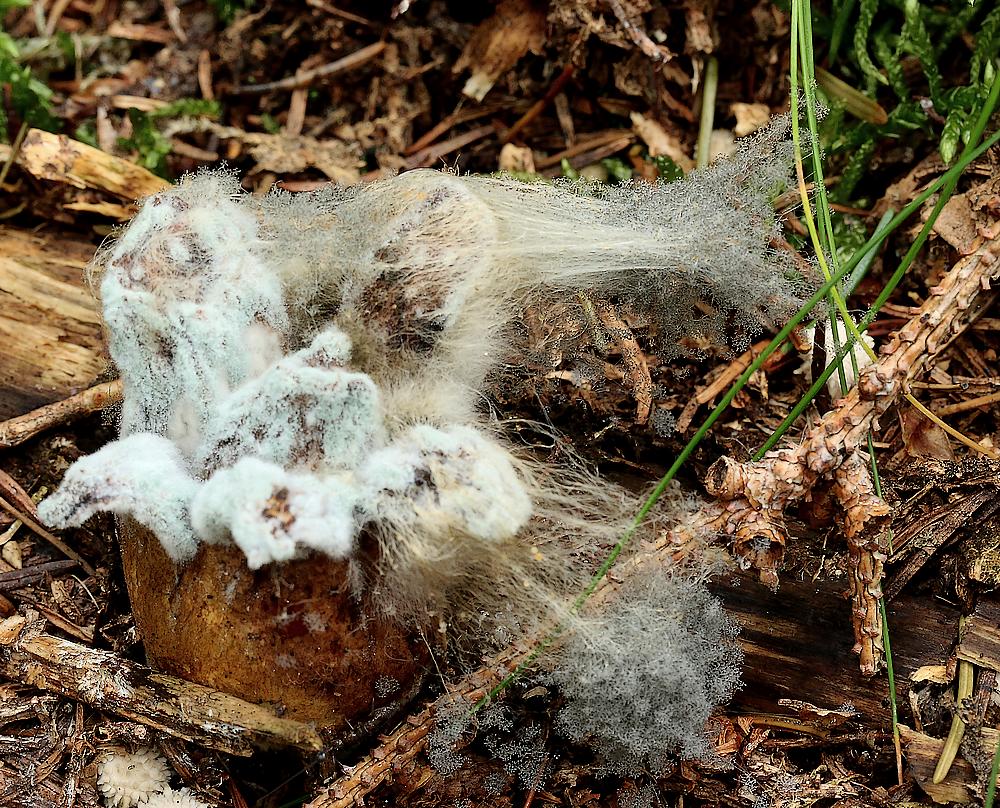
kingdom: Fungi
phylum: Mucoromycota
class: Mucoromycetes
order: Mucorales
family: Rhizopodaceae
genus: Syzygites
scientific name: Syzygites megalocarpus
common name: nissenål
